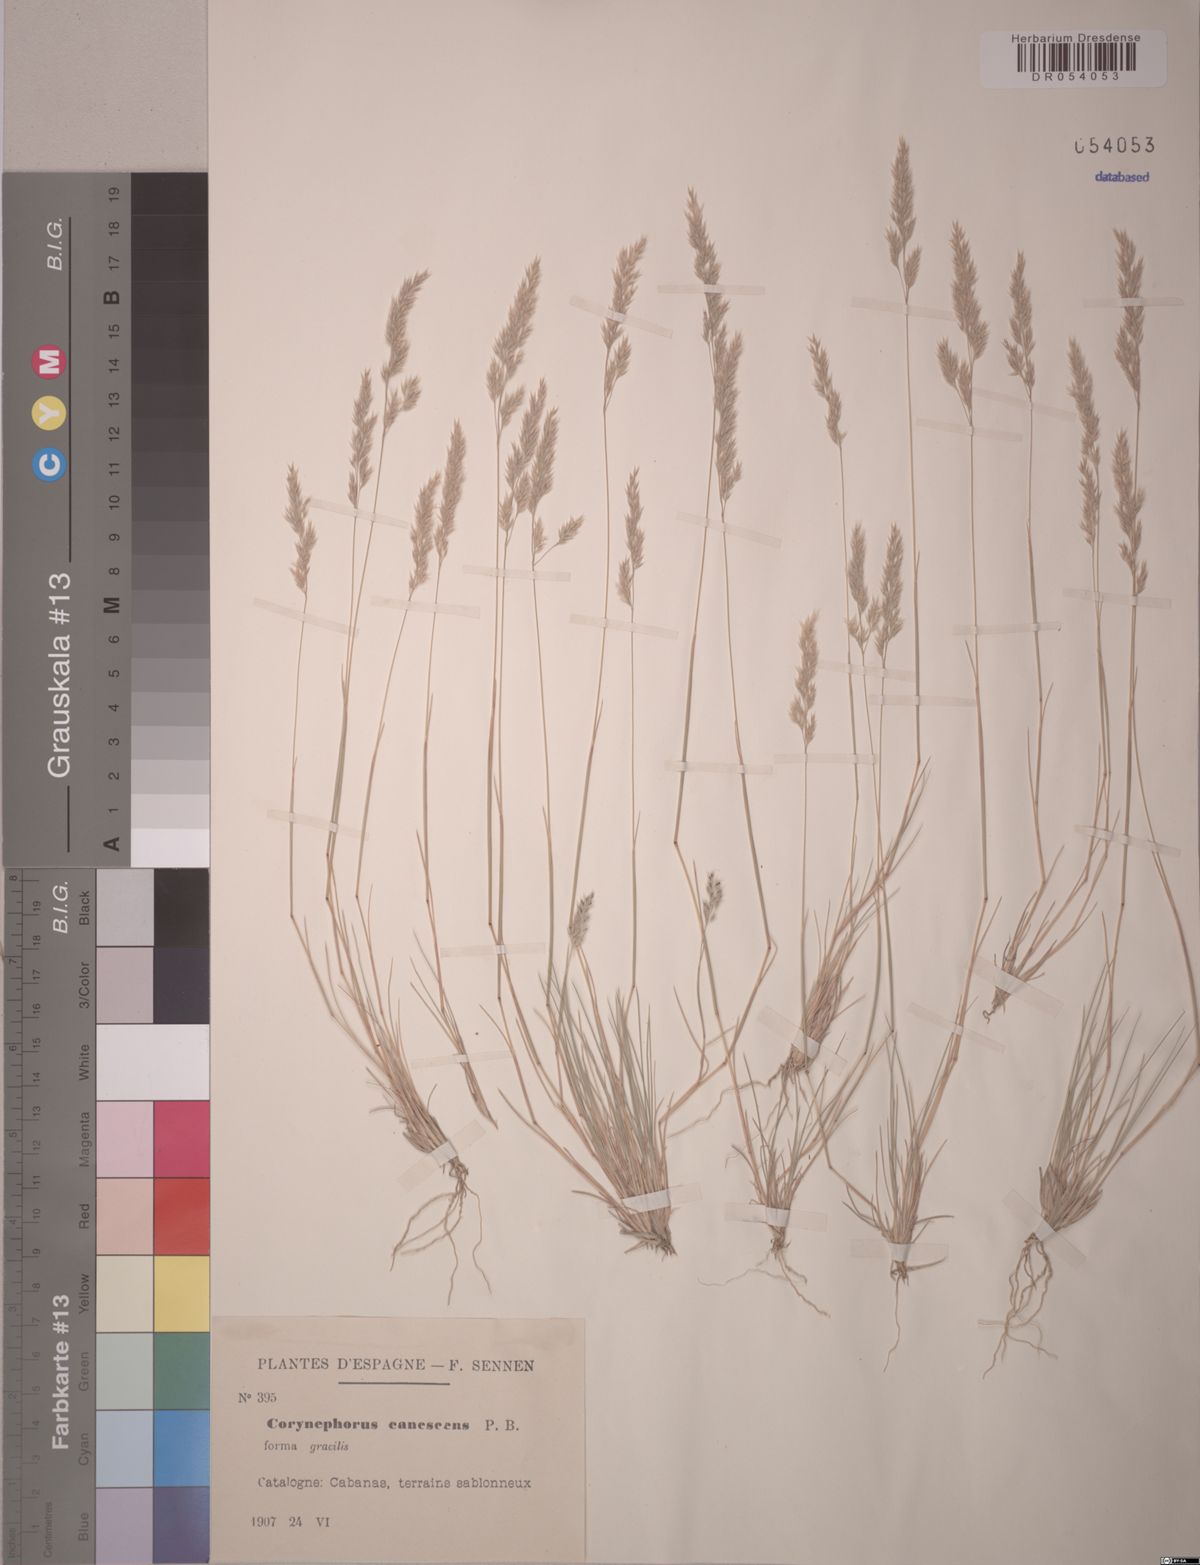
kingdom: Plantae
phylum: Tracheophyta
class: Liliopsida
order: Poales
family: Poaceae
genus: Corynephorus
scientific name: Corynephorus canescens
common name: Grey hair-grass
